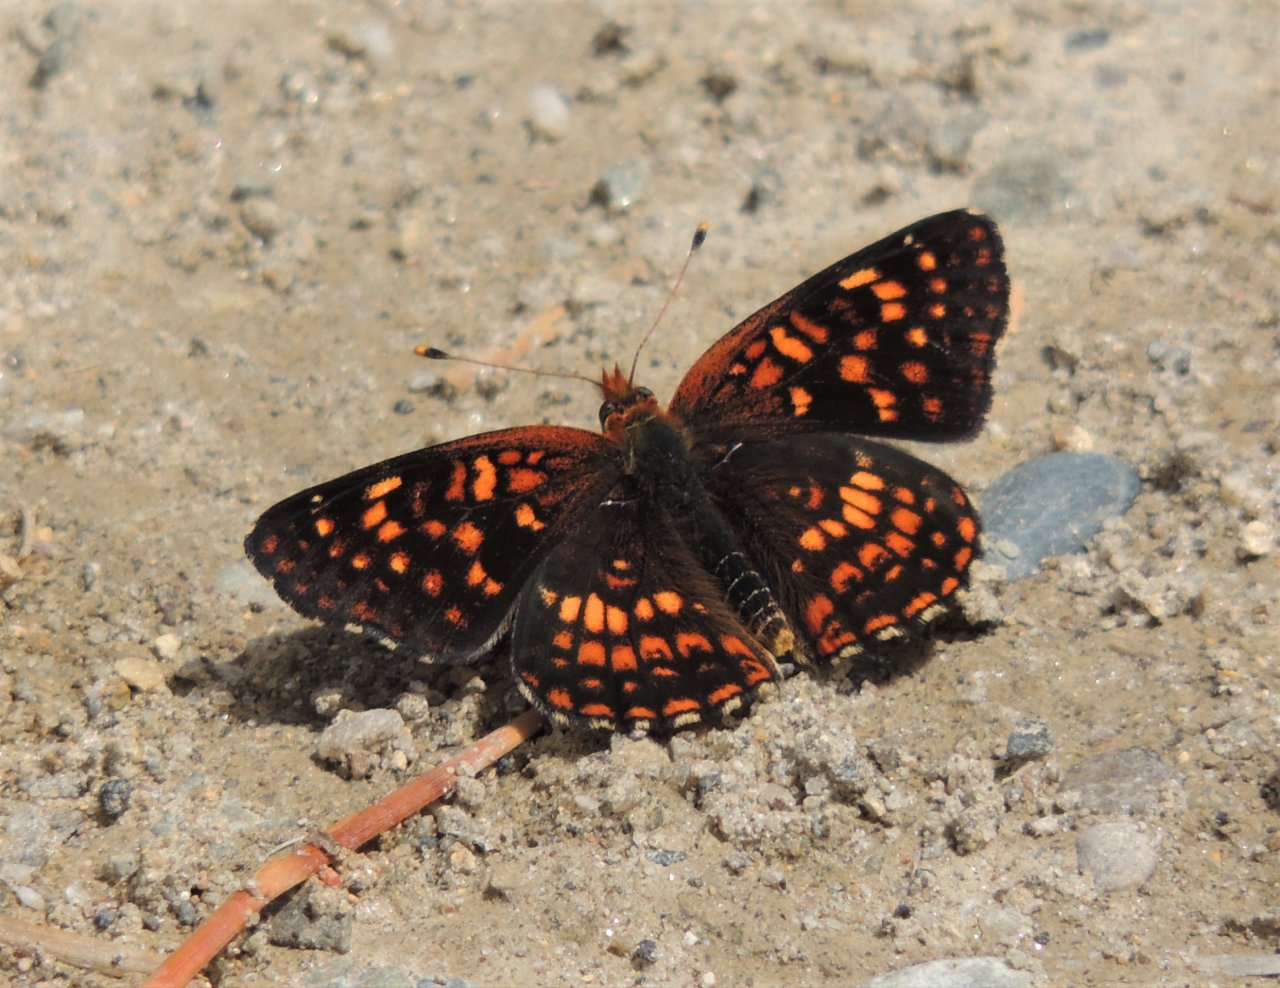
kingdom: Animalia
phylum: Arthropoda
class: Insecta
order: Lepidoptera
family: Nymphalidae
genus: Chlosyne
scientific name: Chlosyne palla
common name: Northern Checkerspot
